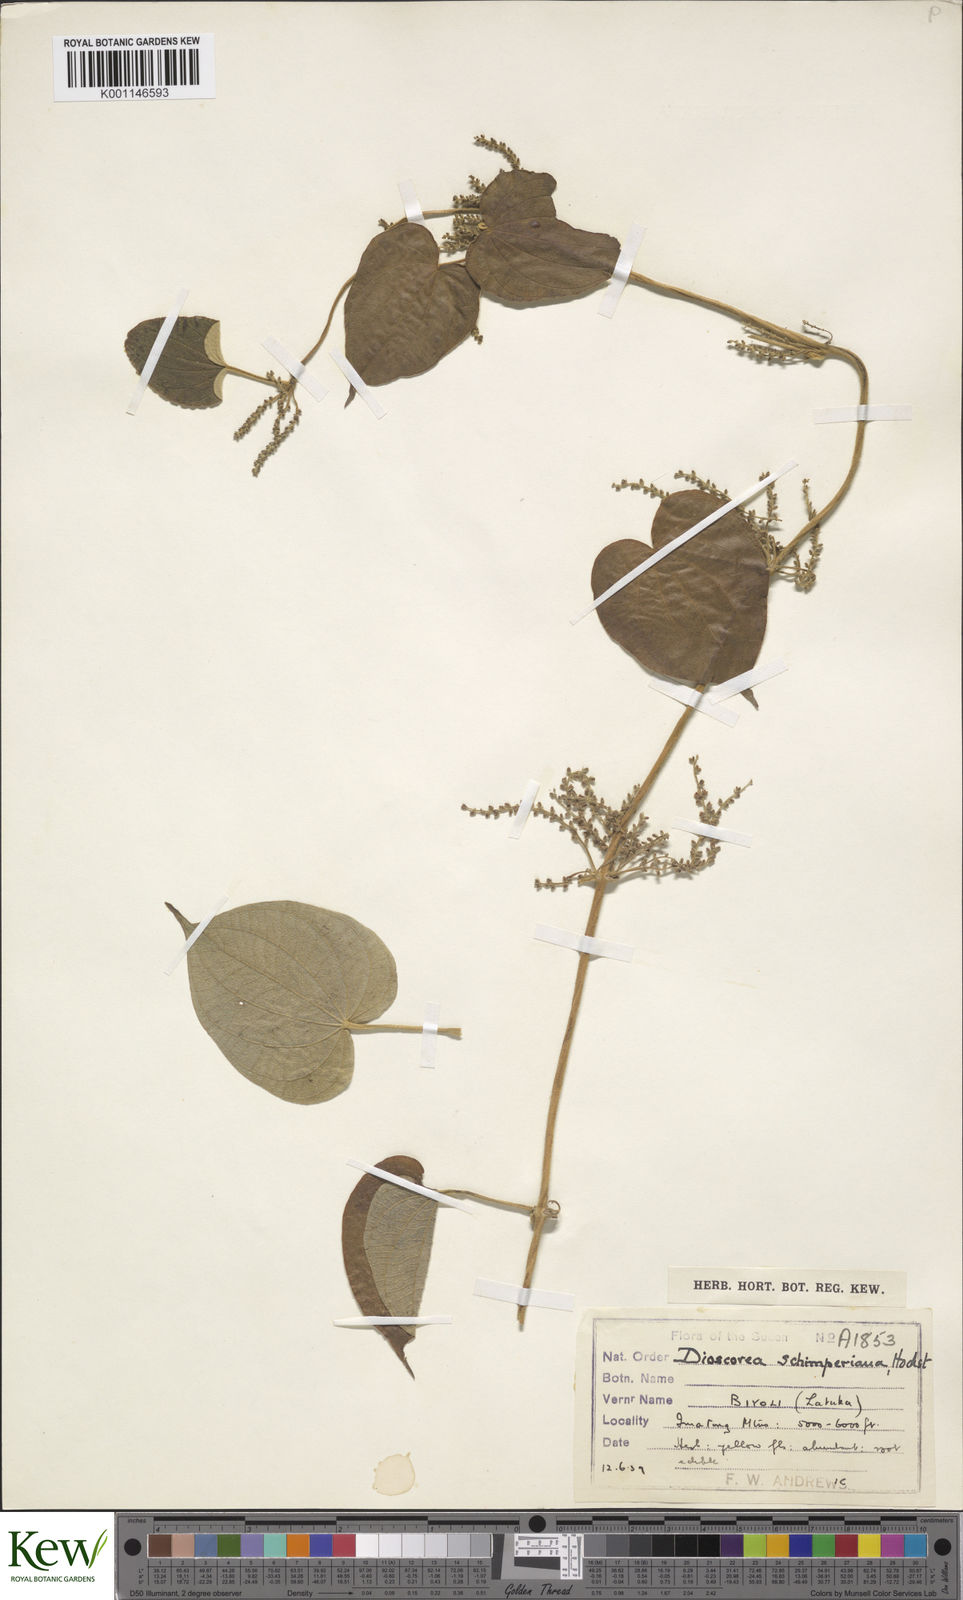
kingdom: Plantae
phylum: Tracheophyta
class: Liliopsida
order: Dioscoreales
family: Dioscoreaceae
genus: Dioscorea
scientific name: Dioscorea schimperiana
